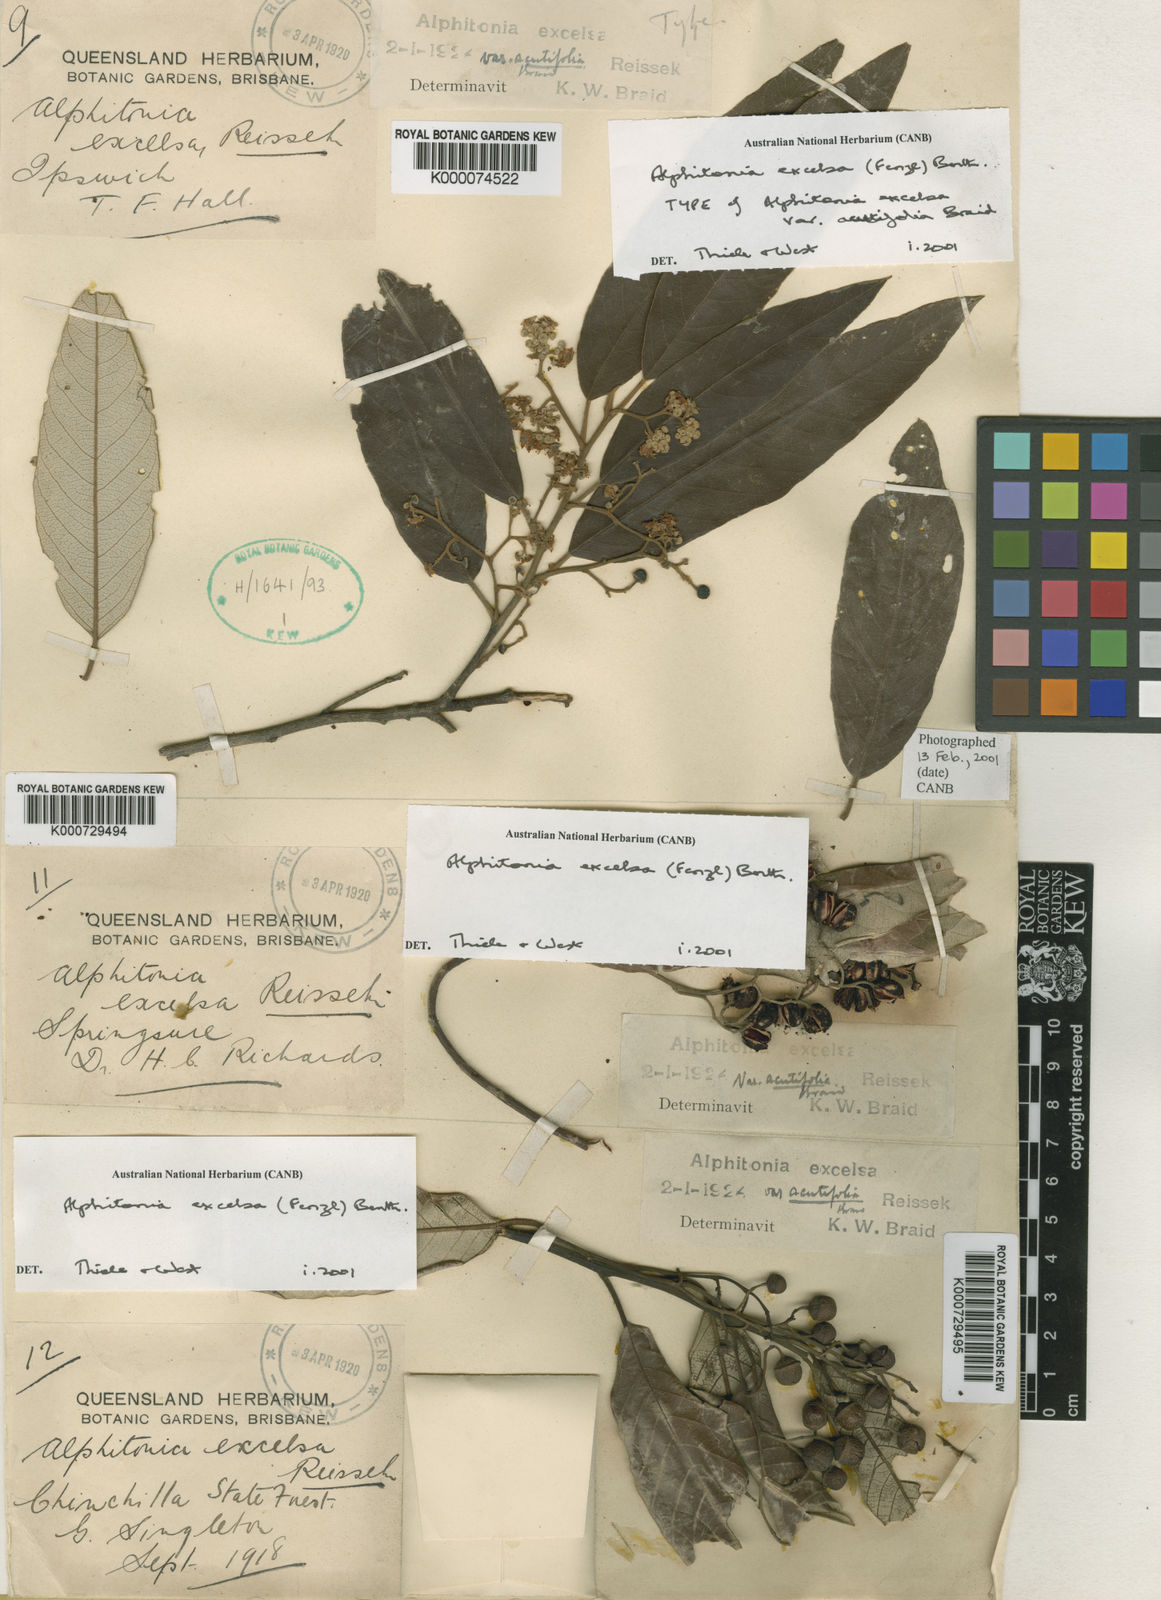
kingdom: Plantae
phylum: Tracheophyta
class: Magnoliopsida
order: Rosales
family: Rhamnaceae
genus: Alphitonia
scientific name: Alphitonia excelsa
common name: Red ash
